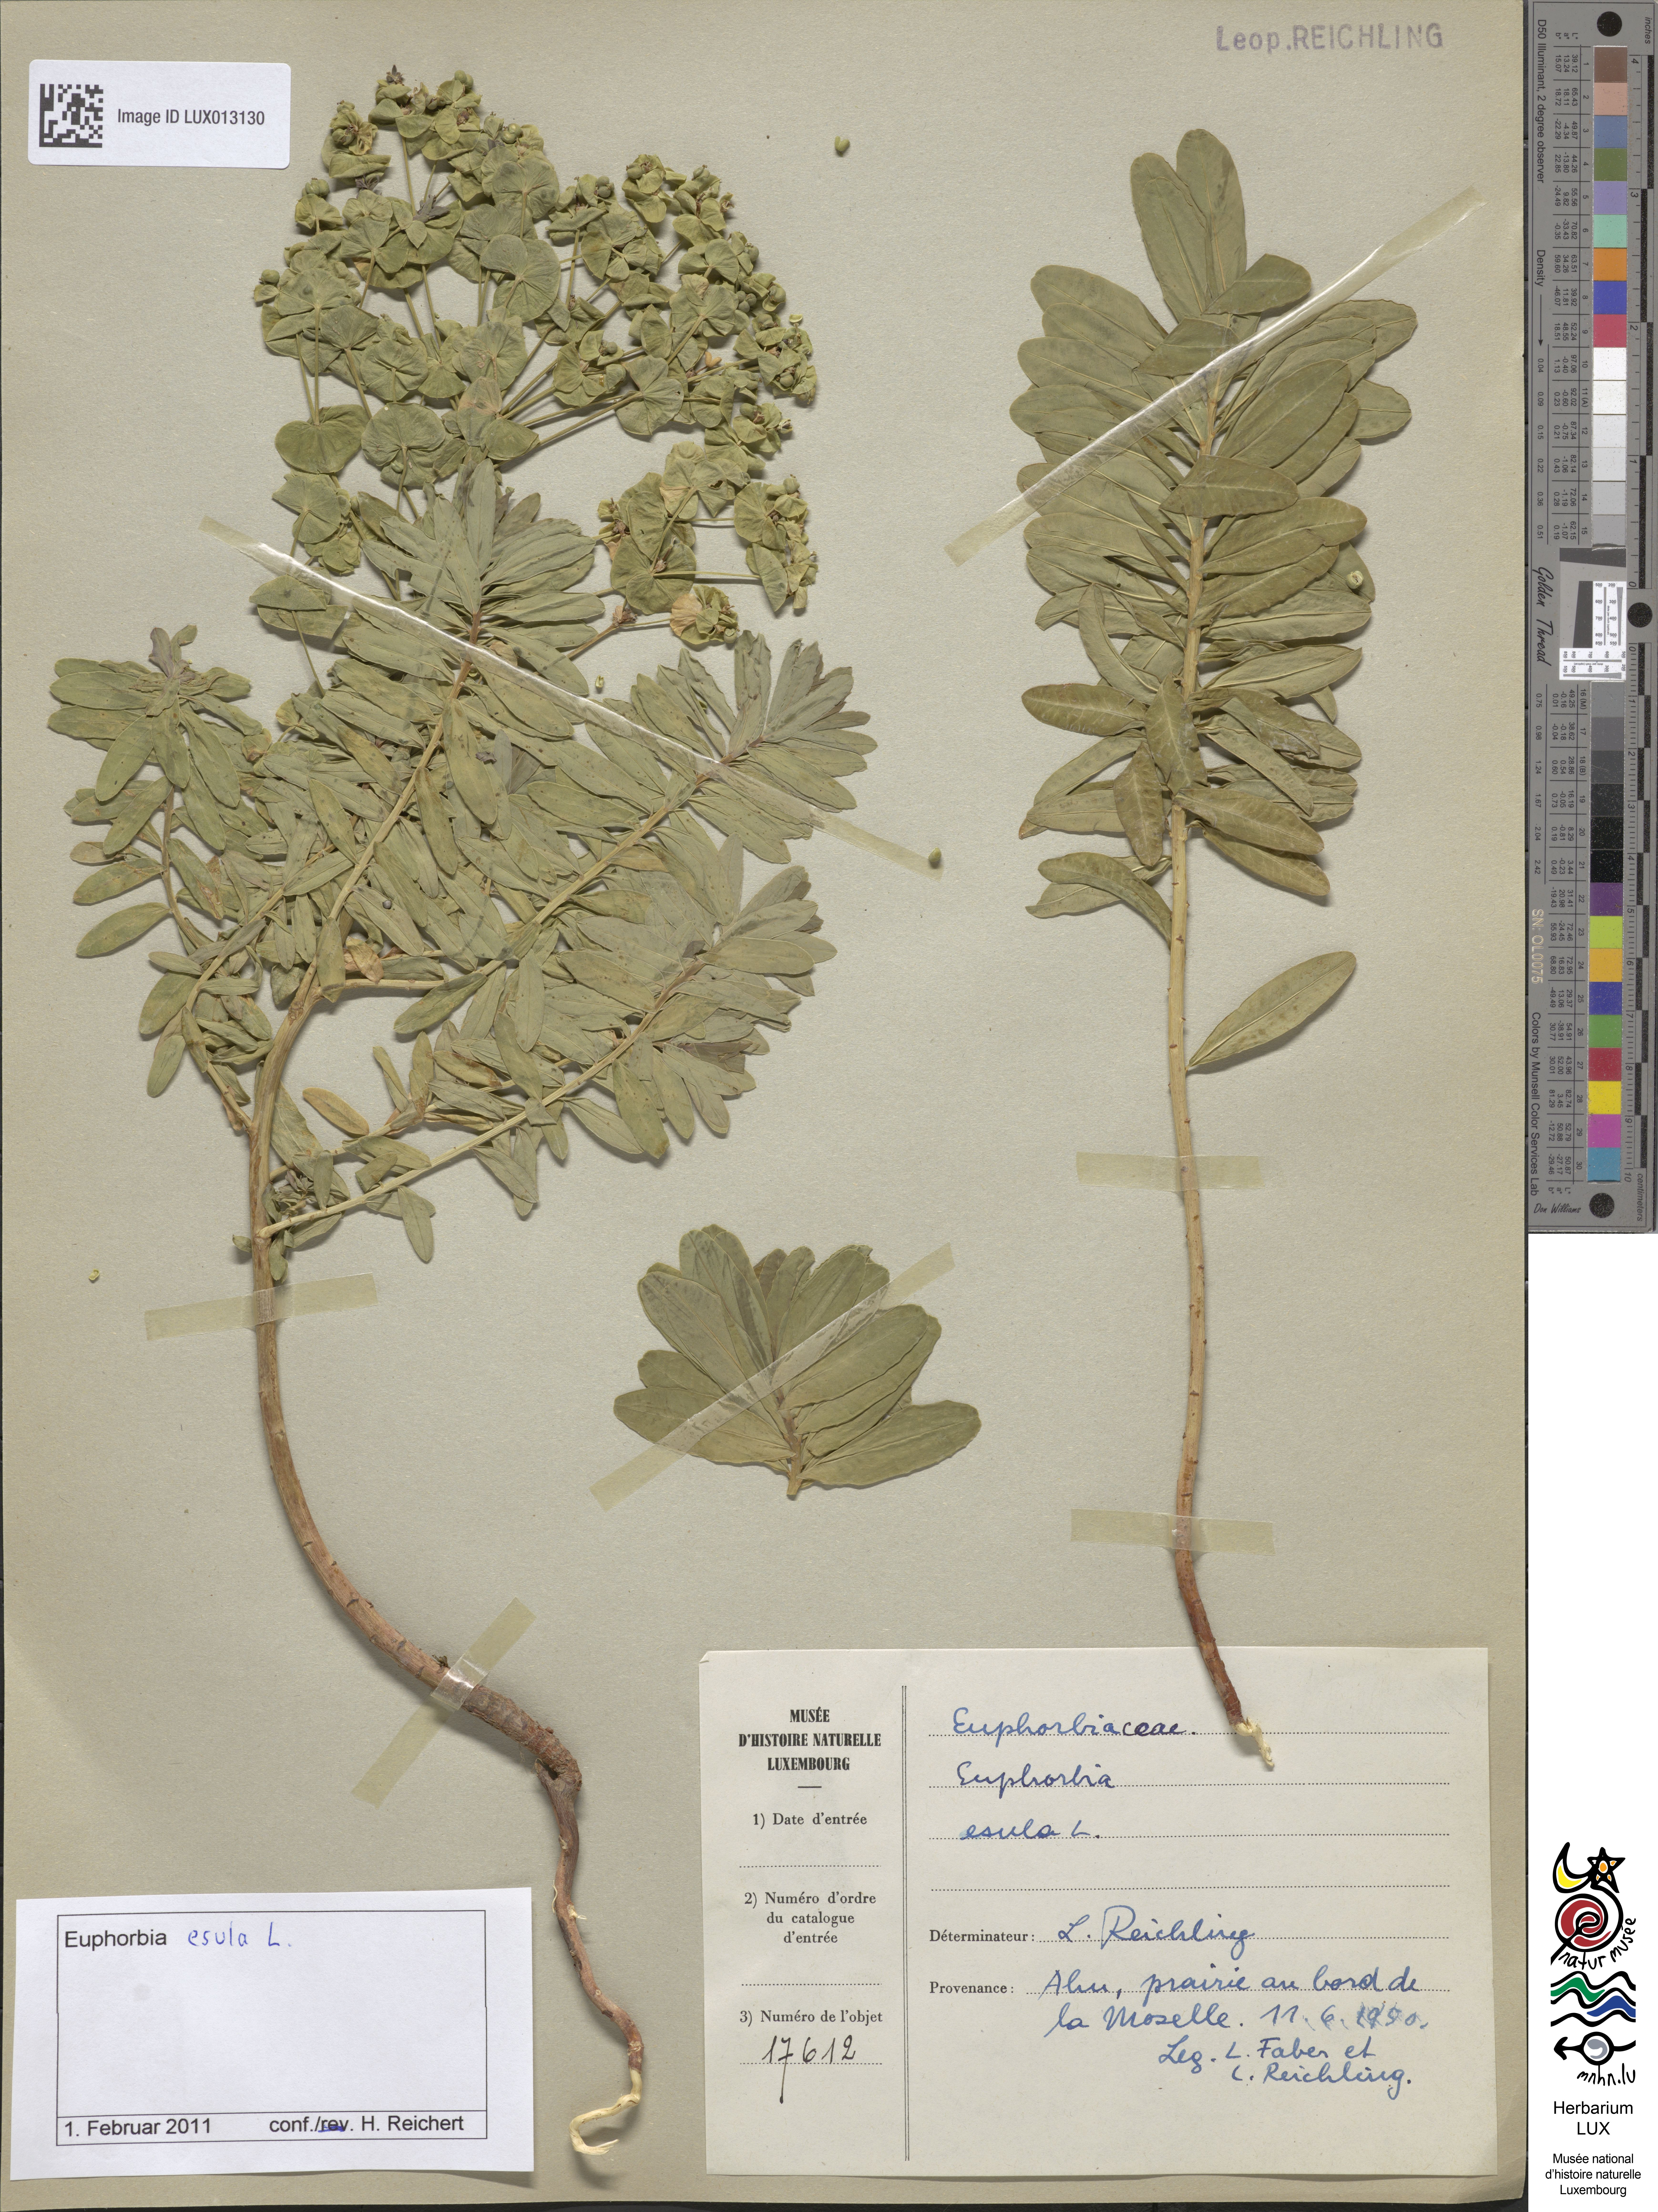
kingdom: Plantae
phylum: Tracheophyta
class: Magnoliopsida
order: Malpighiales
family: Euphorbiaceae
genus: Euphorbia
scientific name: Euphorbia esula
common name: Leafy spurge
